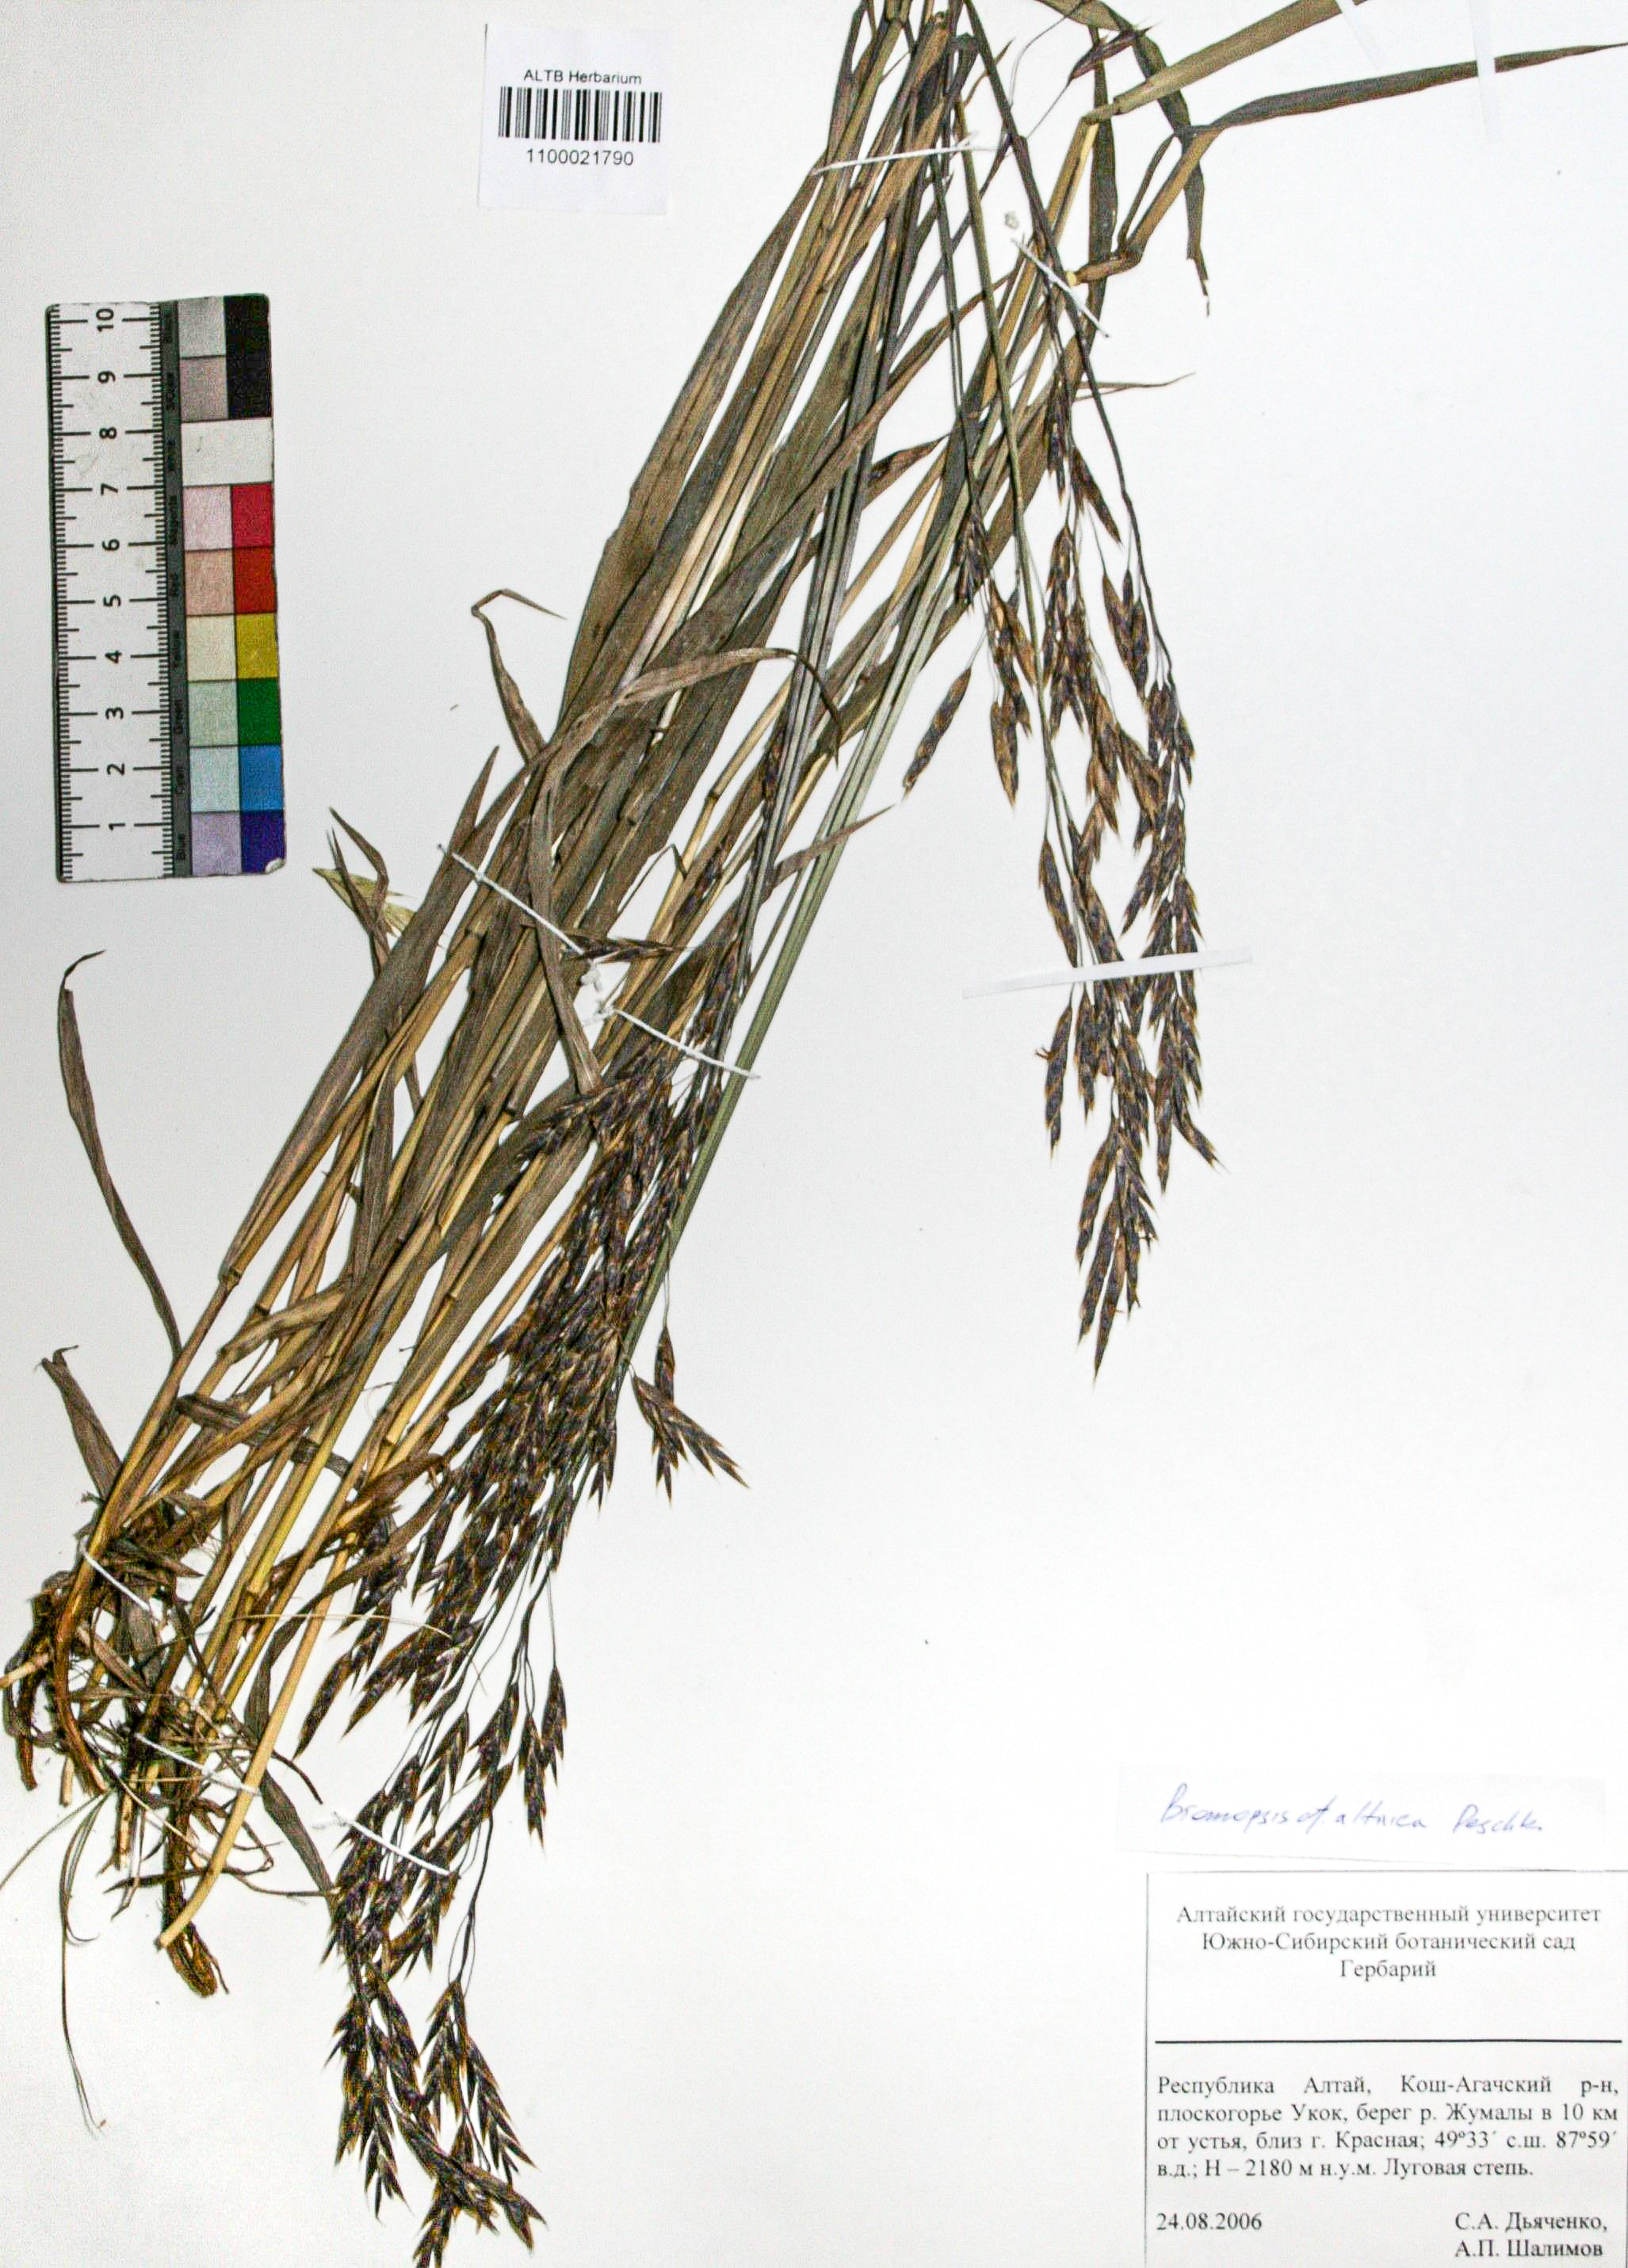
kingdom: Plantae
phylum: Tracheophyta
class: Liliopsida
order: Poales
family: Poaceae
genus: Bromus
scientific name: Bromus pumpellianus
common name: Pumpelly's brome
